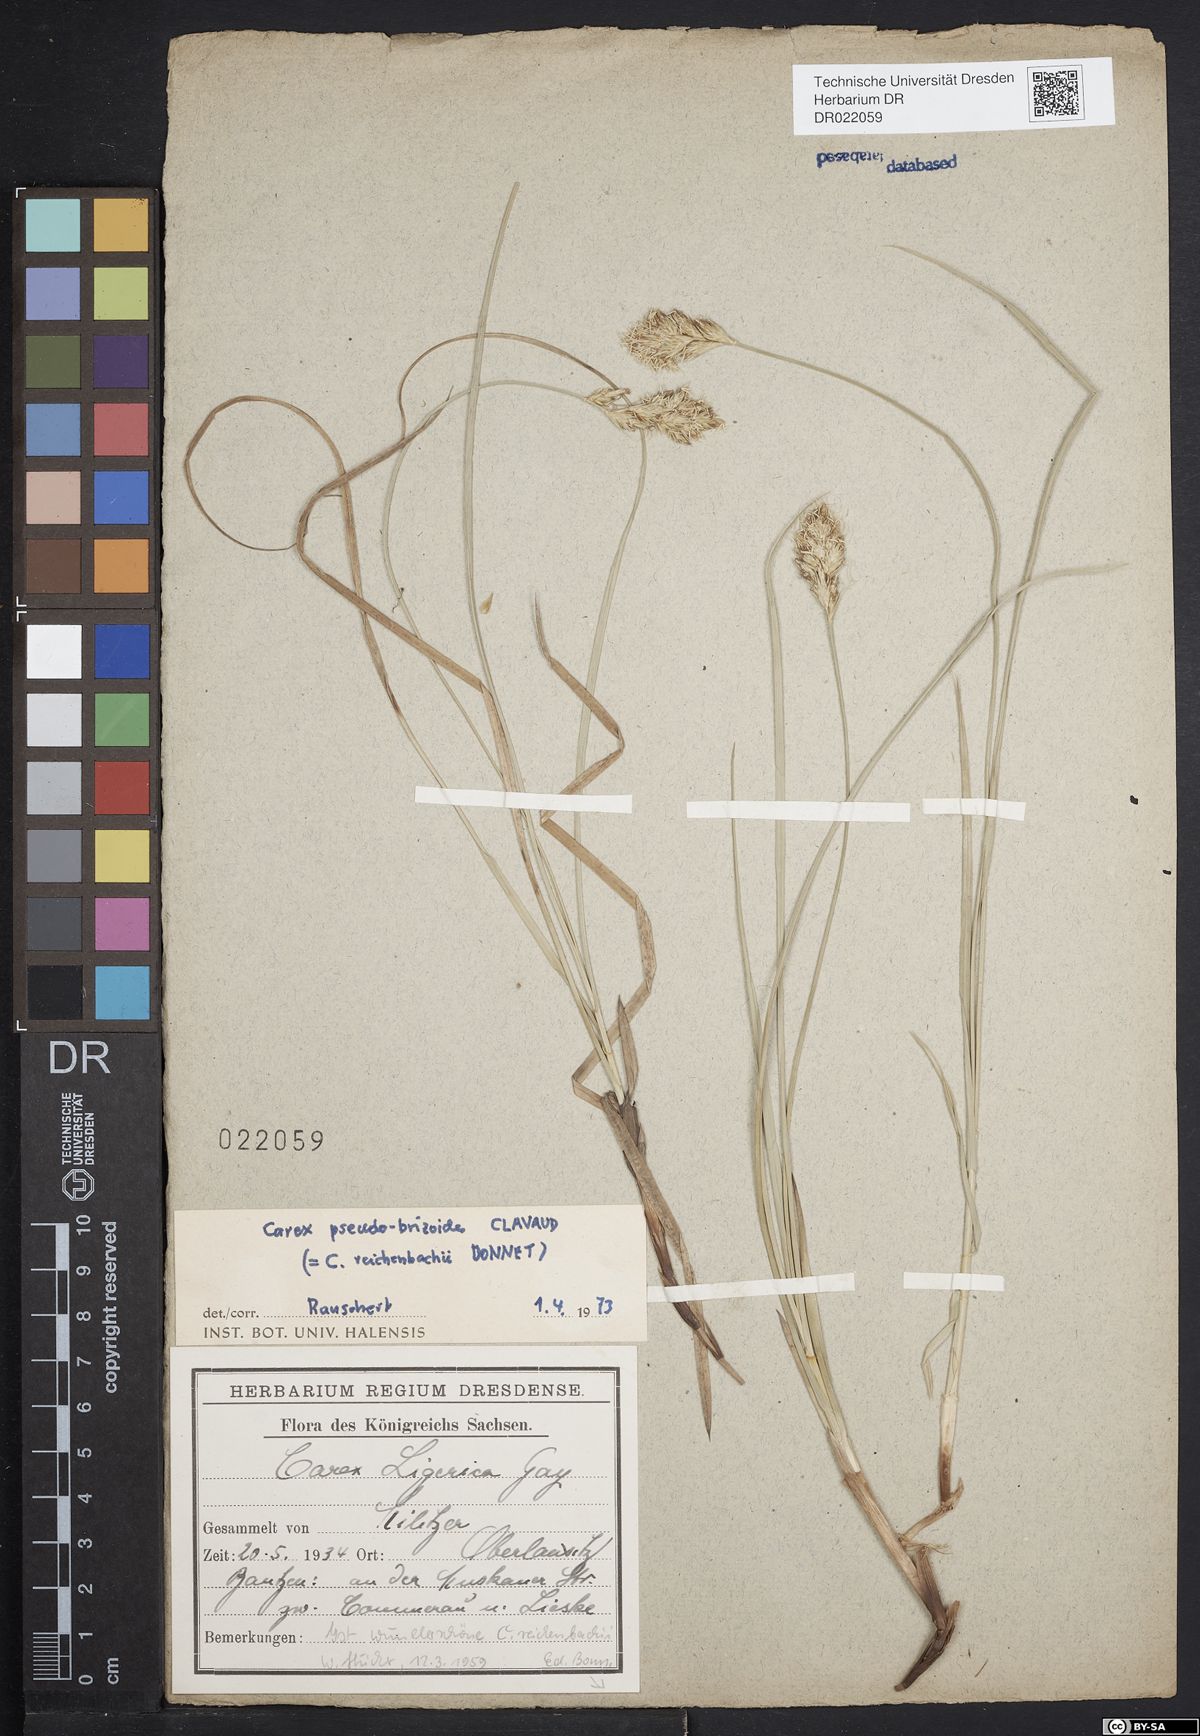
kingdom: Plantae
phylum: Tracheophyta
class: Liliopsida
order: Poales
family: Cyperaceae
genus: Carex
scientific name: Carex pseudobrizoides
